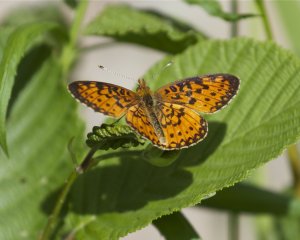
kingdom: Animalia
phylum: Arthropoda
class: Insecta
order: Lepidoptera
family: Nymphalidae
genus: Boloria
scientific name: Boloria selene
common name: Silver-bordered Fritillary
